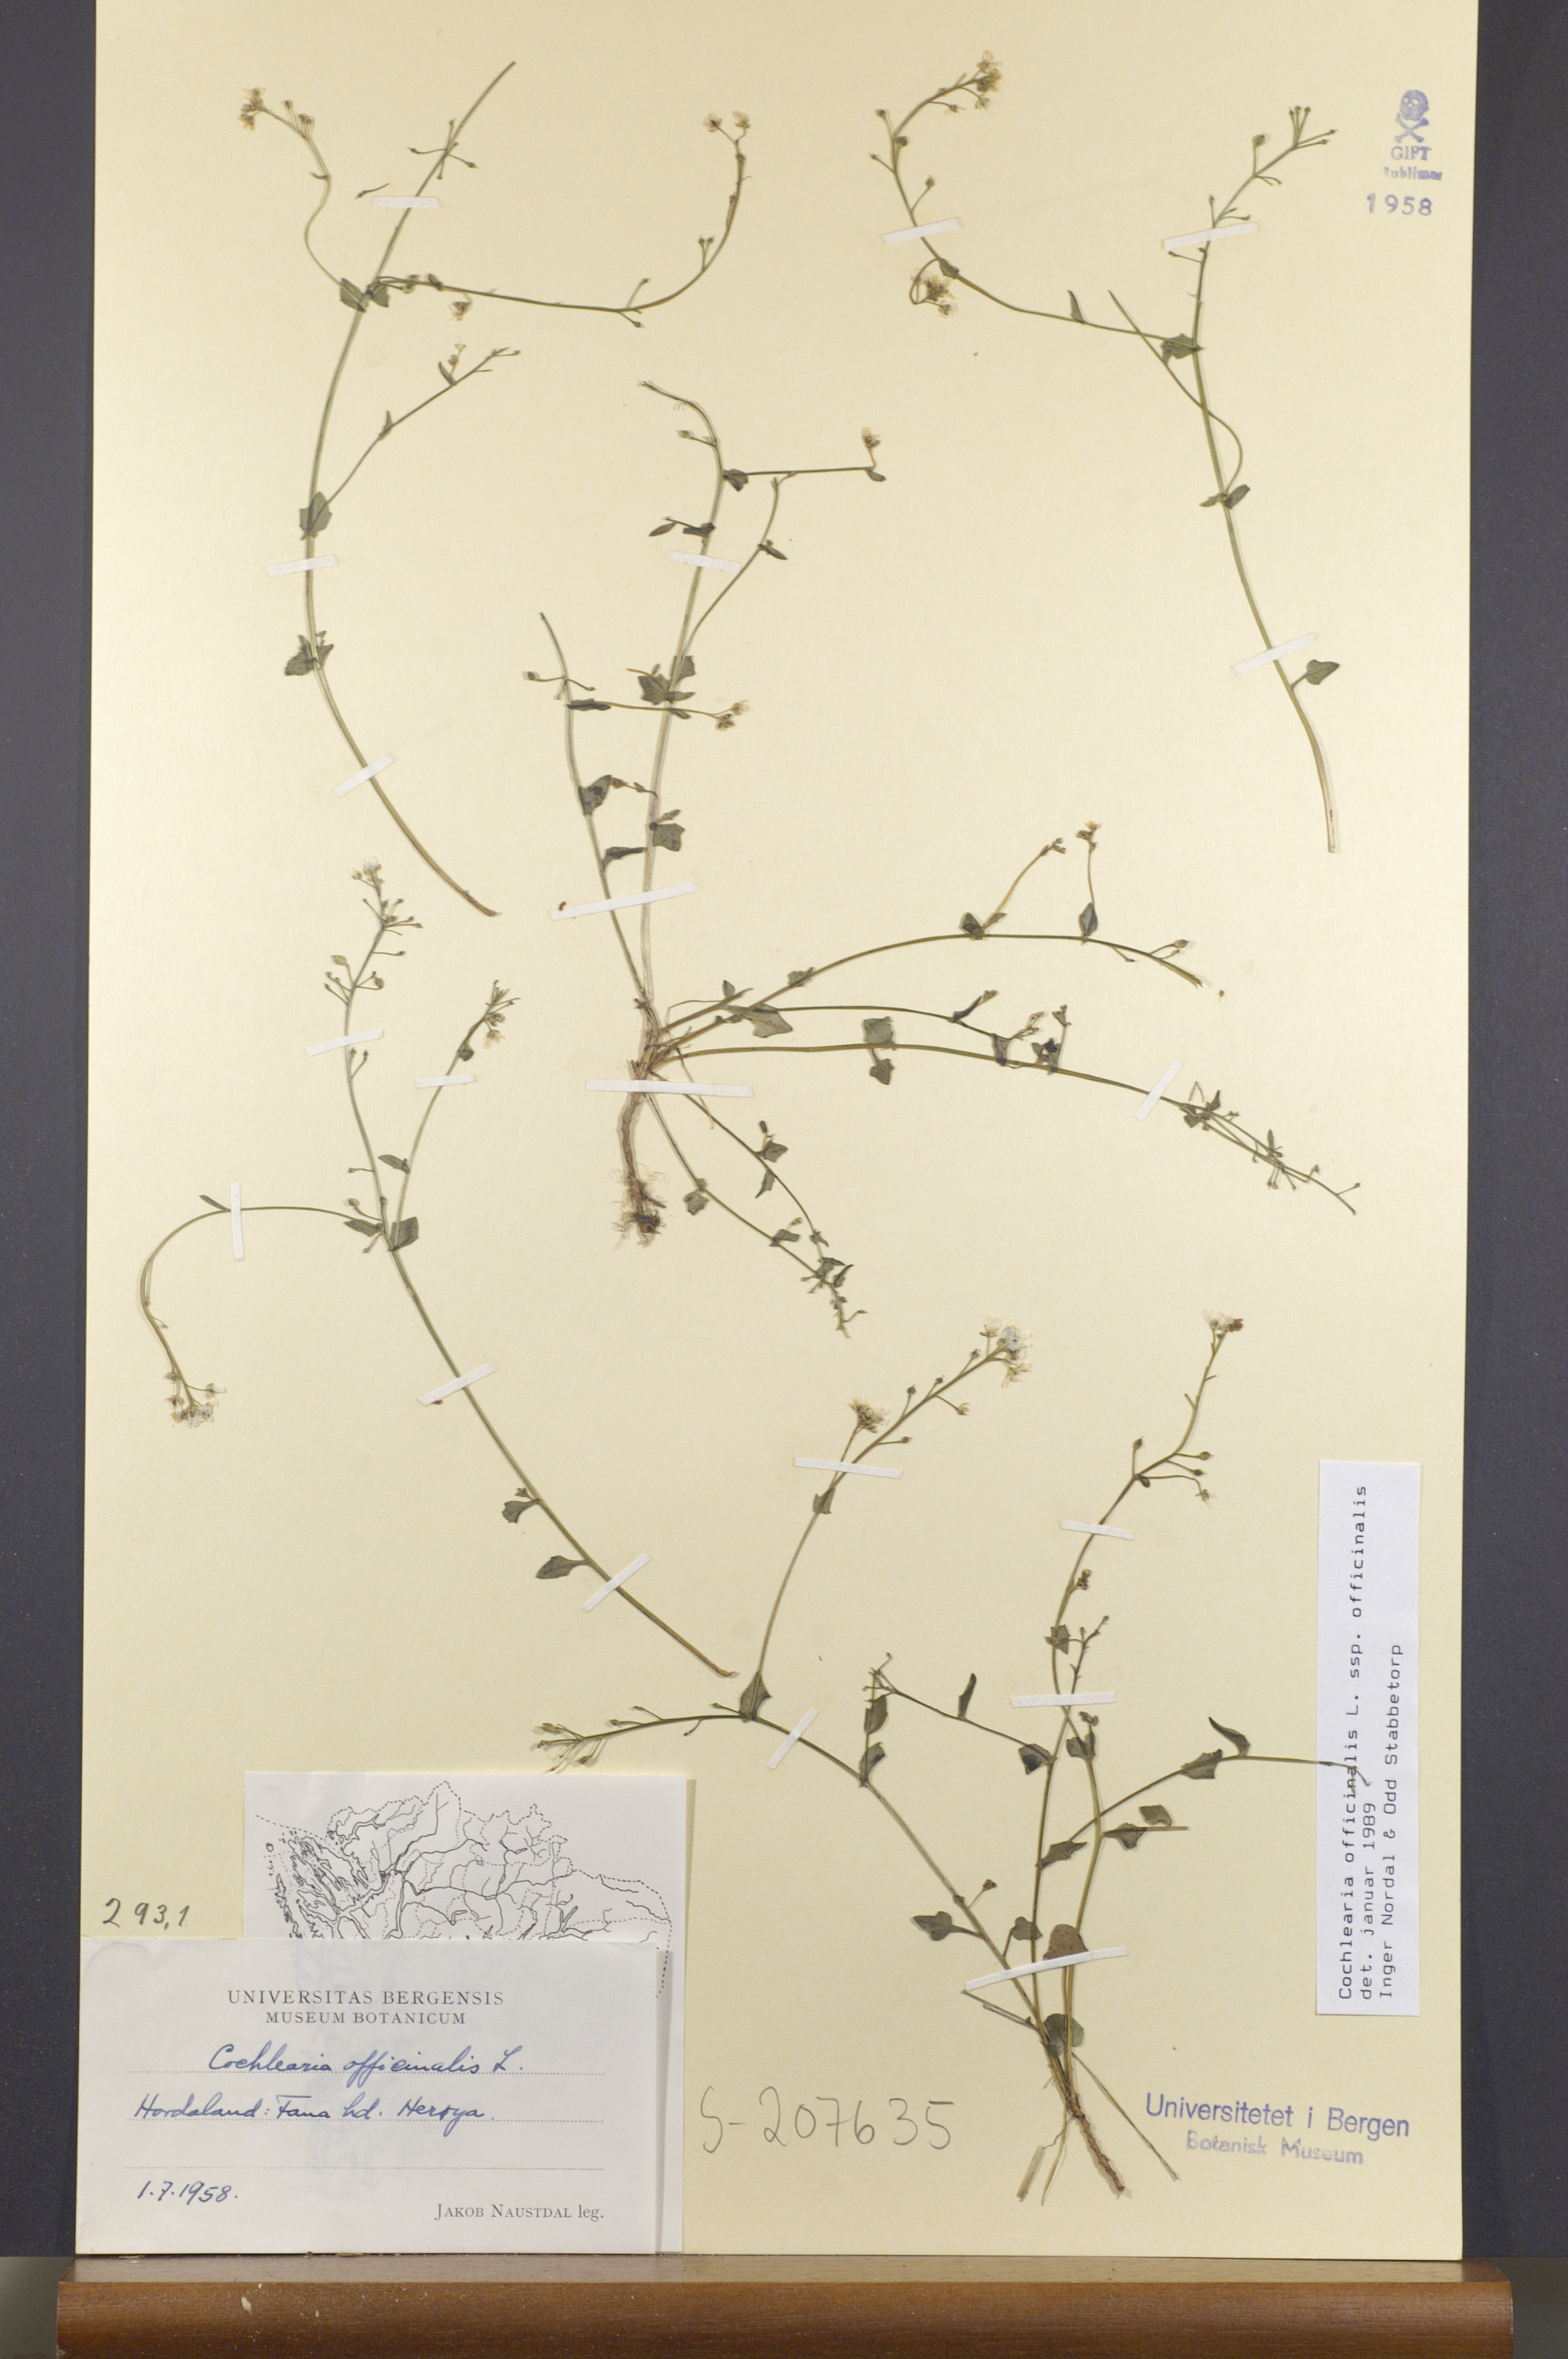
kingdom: Plantae
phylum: Tracheophyta
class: Magnoliopsida
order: Brassicales
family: Brassicaceae
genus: Cochlearia
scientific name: Cochlearia officinalis
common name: Scurvy-grass
